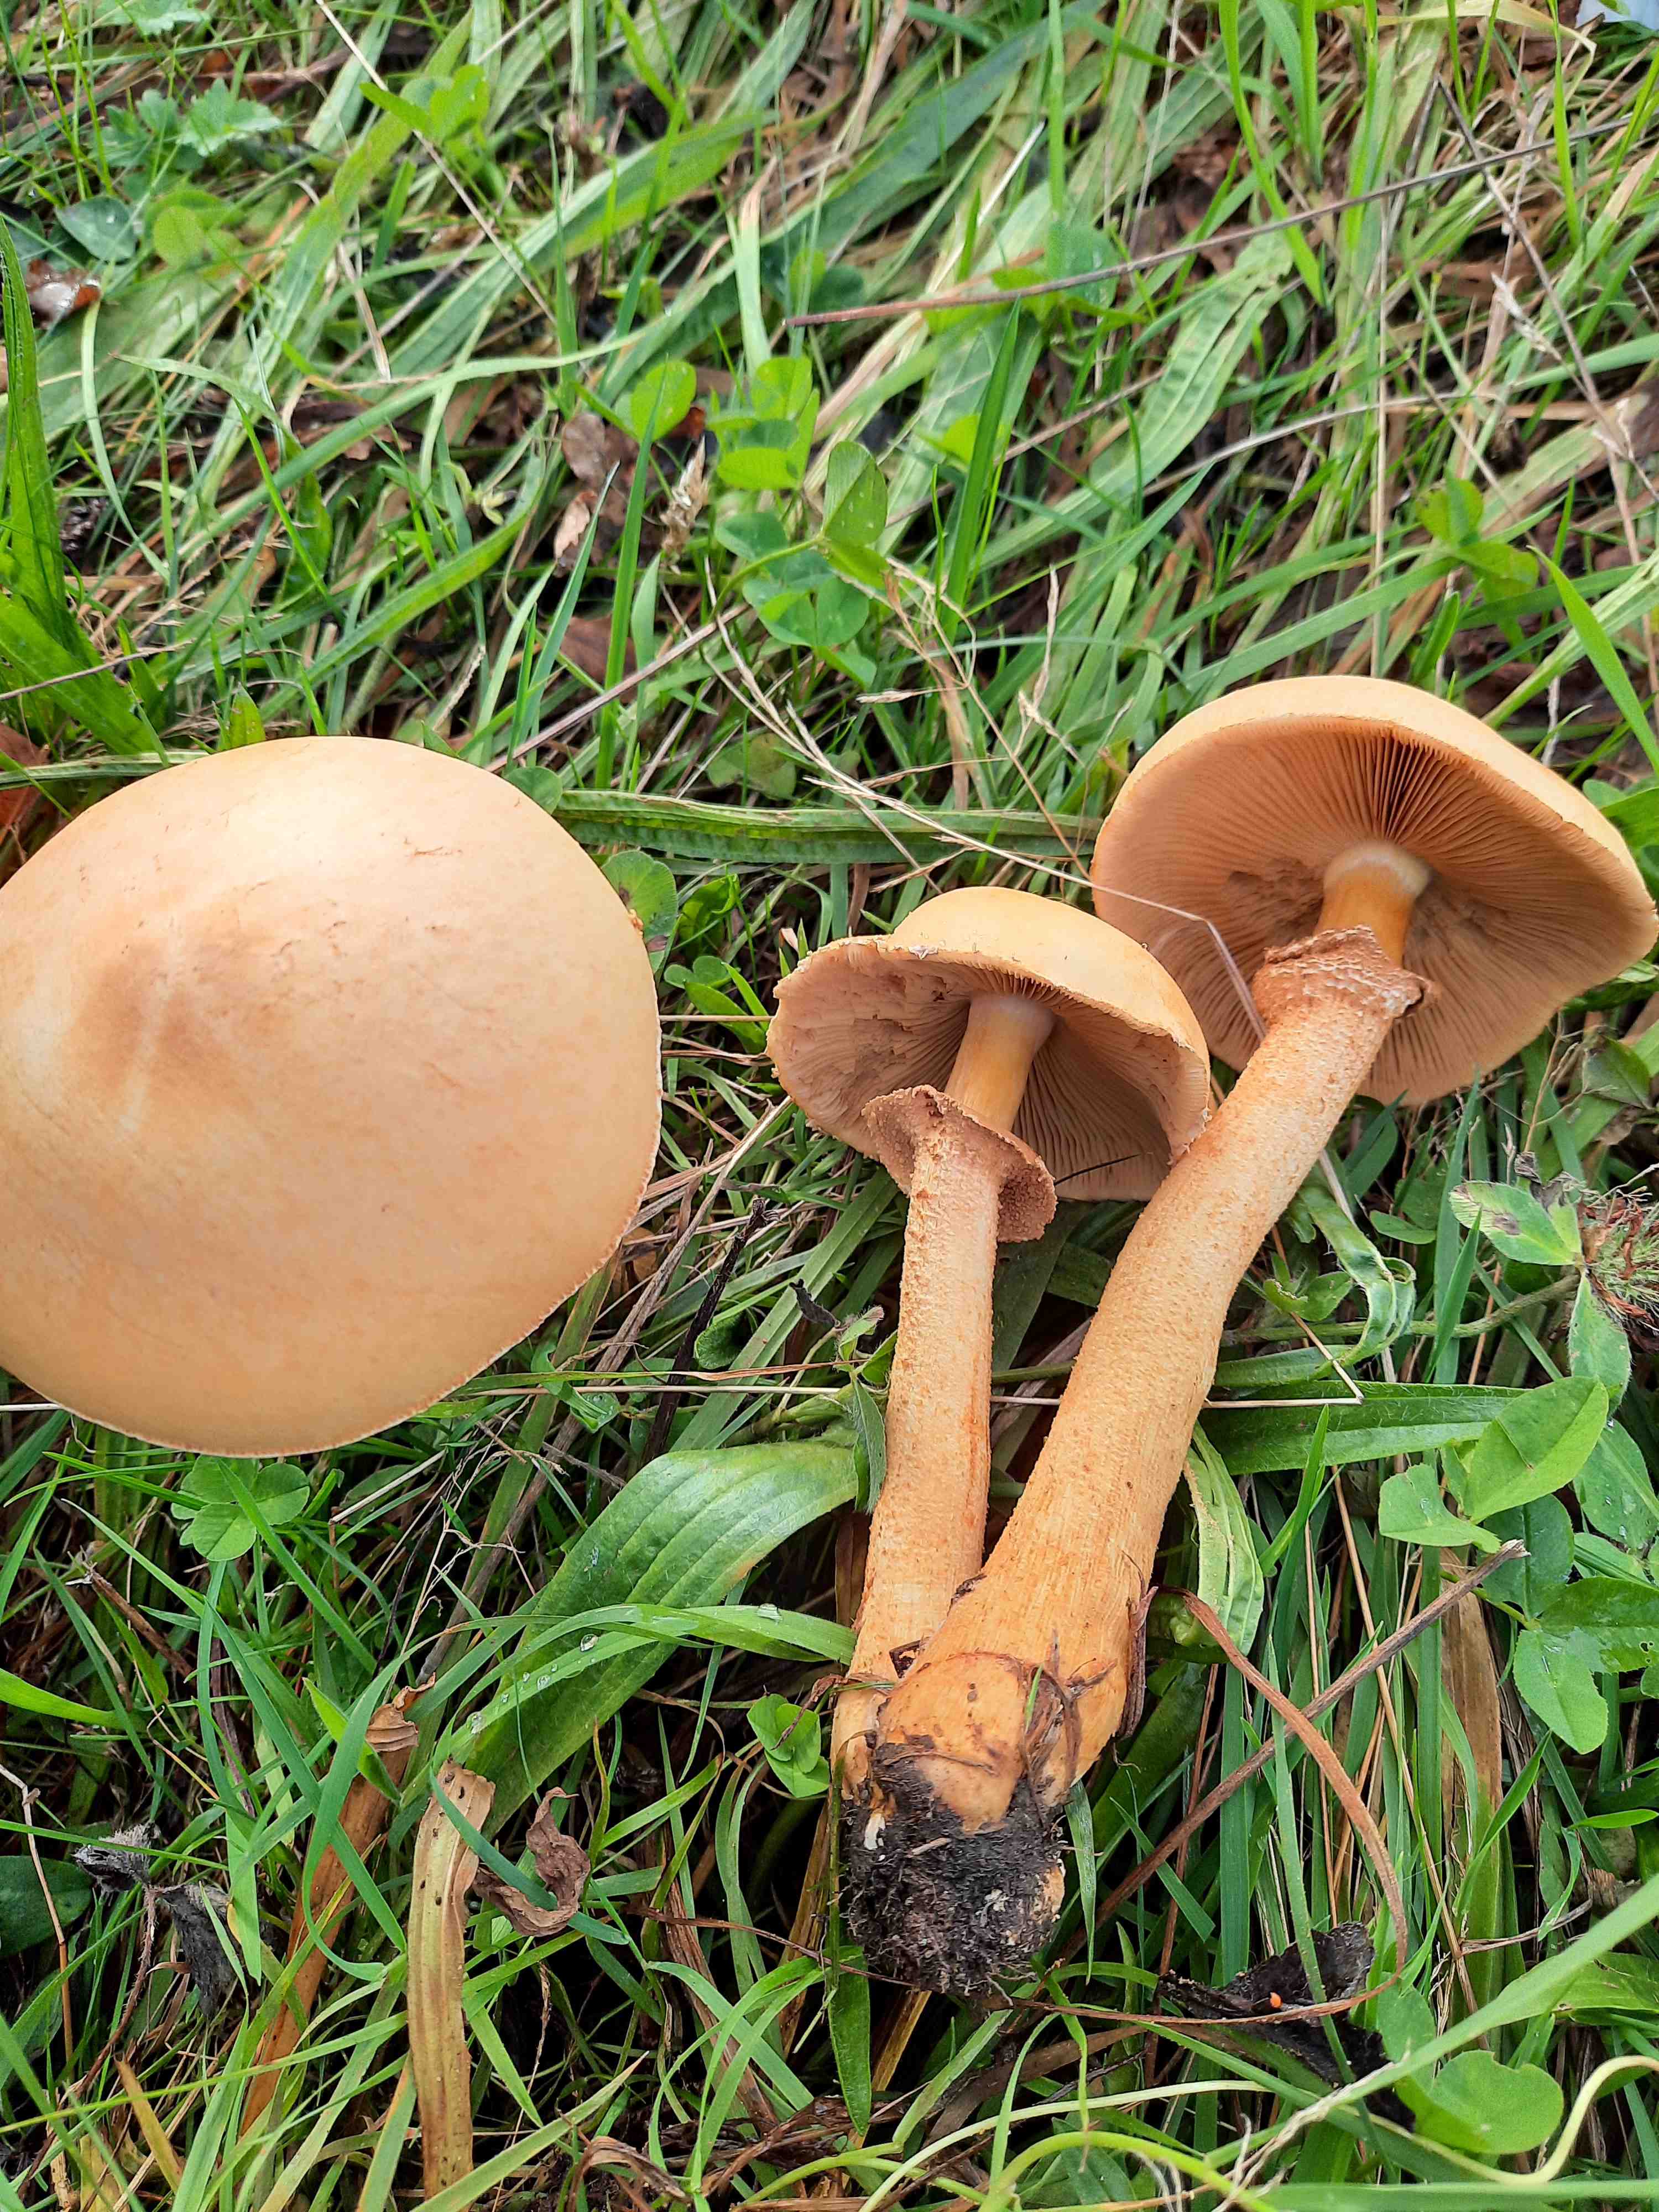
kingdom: Fungi
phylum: Basidiomycota
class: Agaricomycetes
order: Agaricales
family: Tricholomataceae
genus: Phaeolepiota
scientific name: Phaeolepiota aurea
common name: gyldenhat
